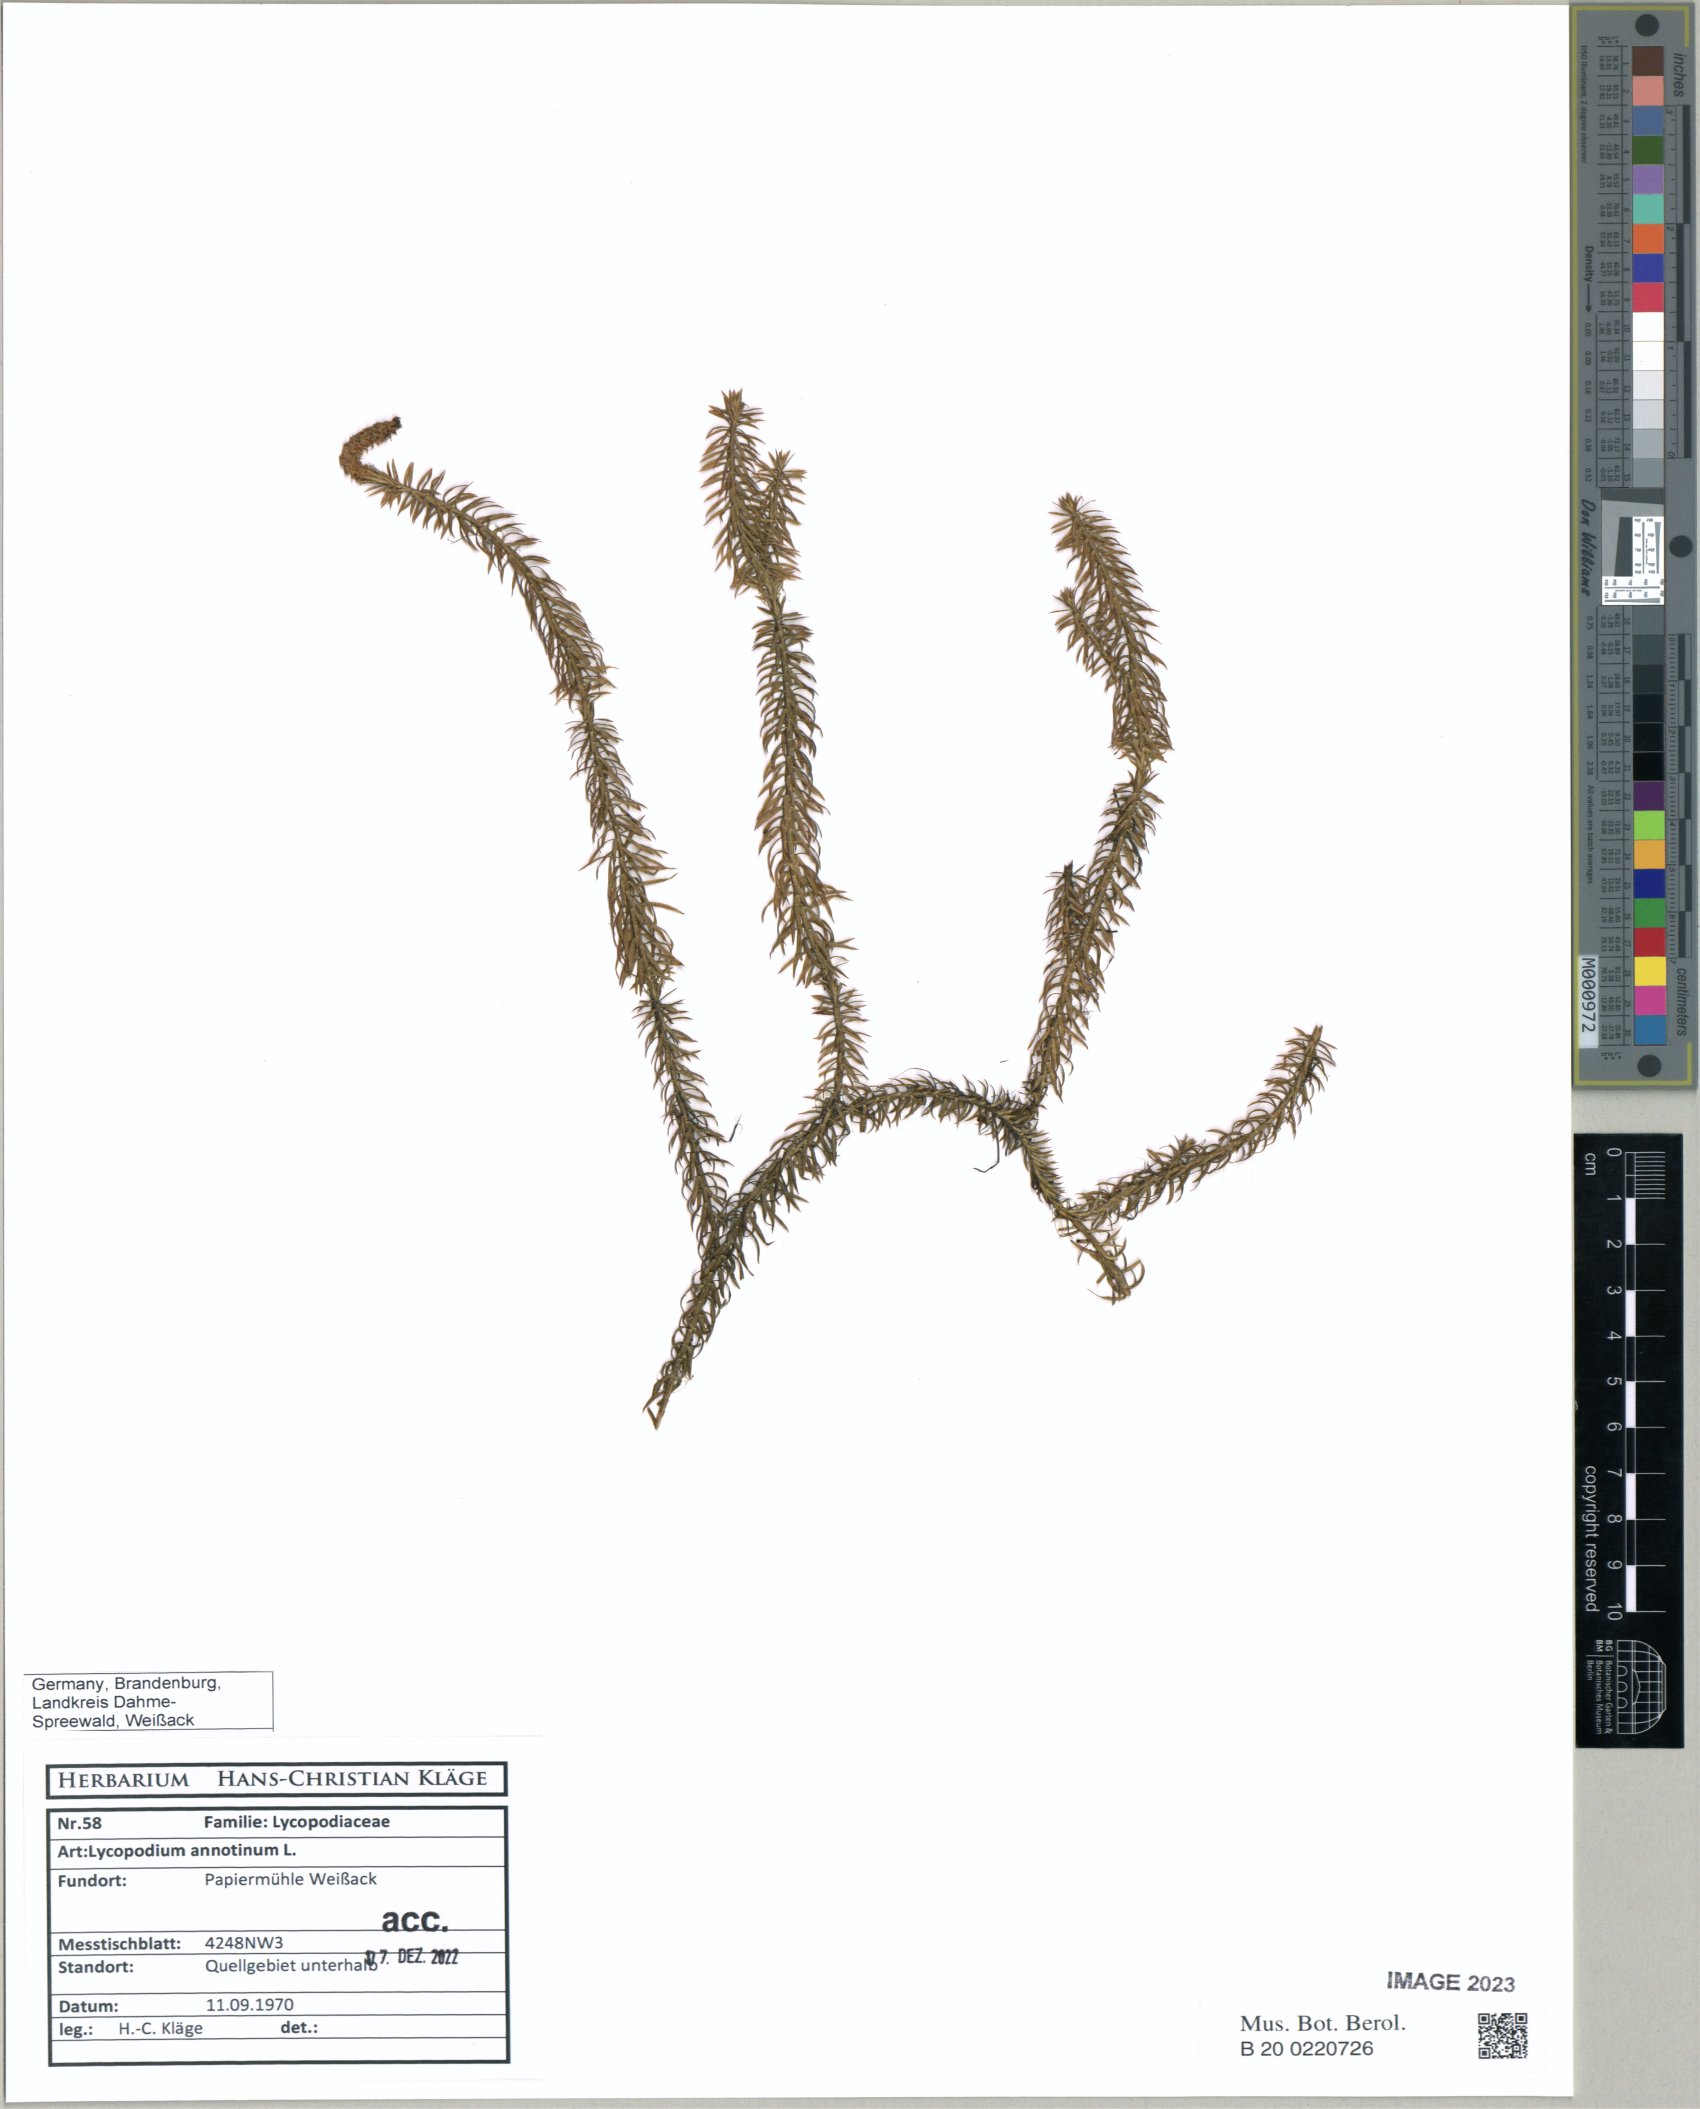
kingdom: Plantae
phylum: Tracheophyta
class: Lycopodiopsida
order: Lycopodiales
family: Lycopodiaceae
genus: Spinulum
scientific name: Spinulum annotinum
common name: Interrupted club-moss
